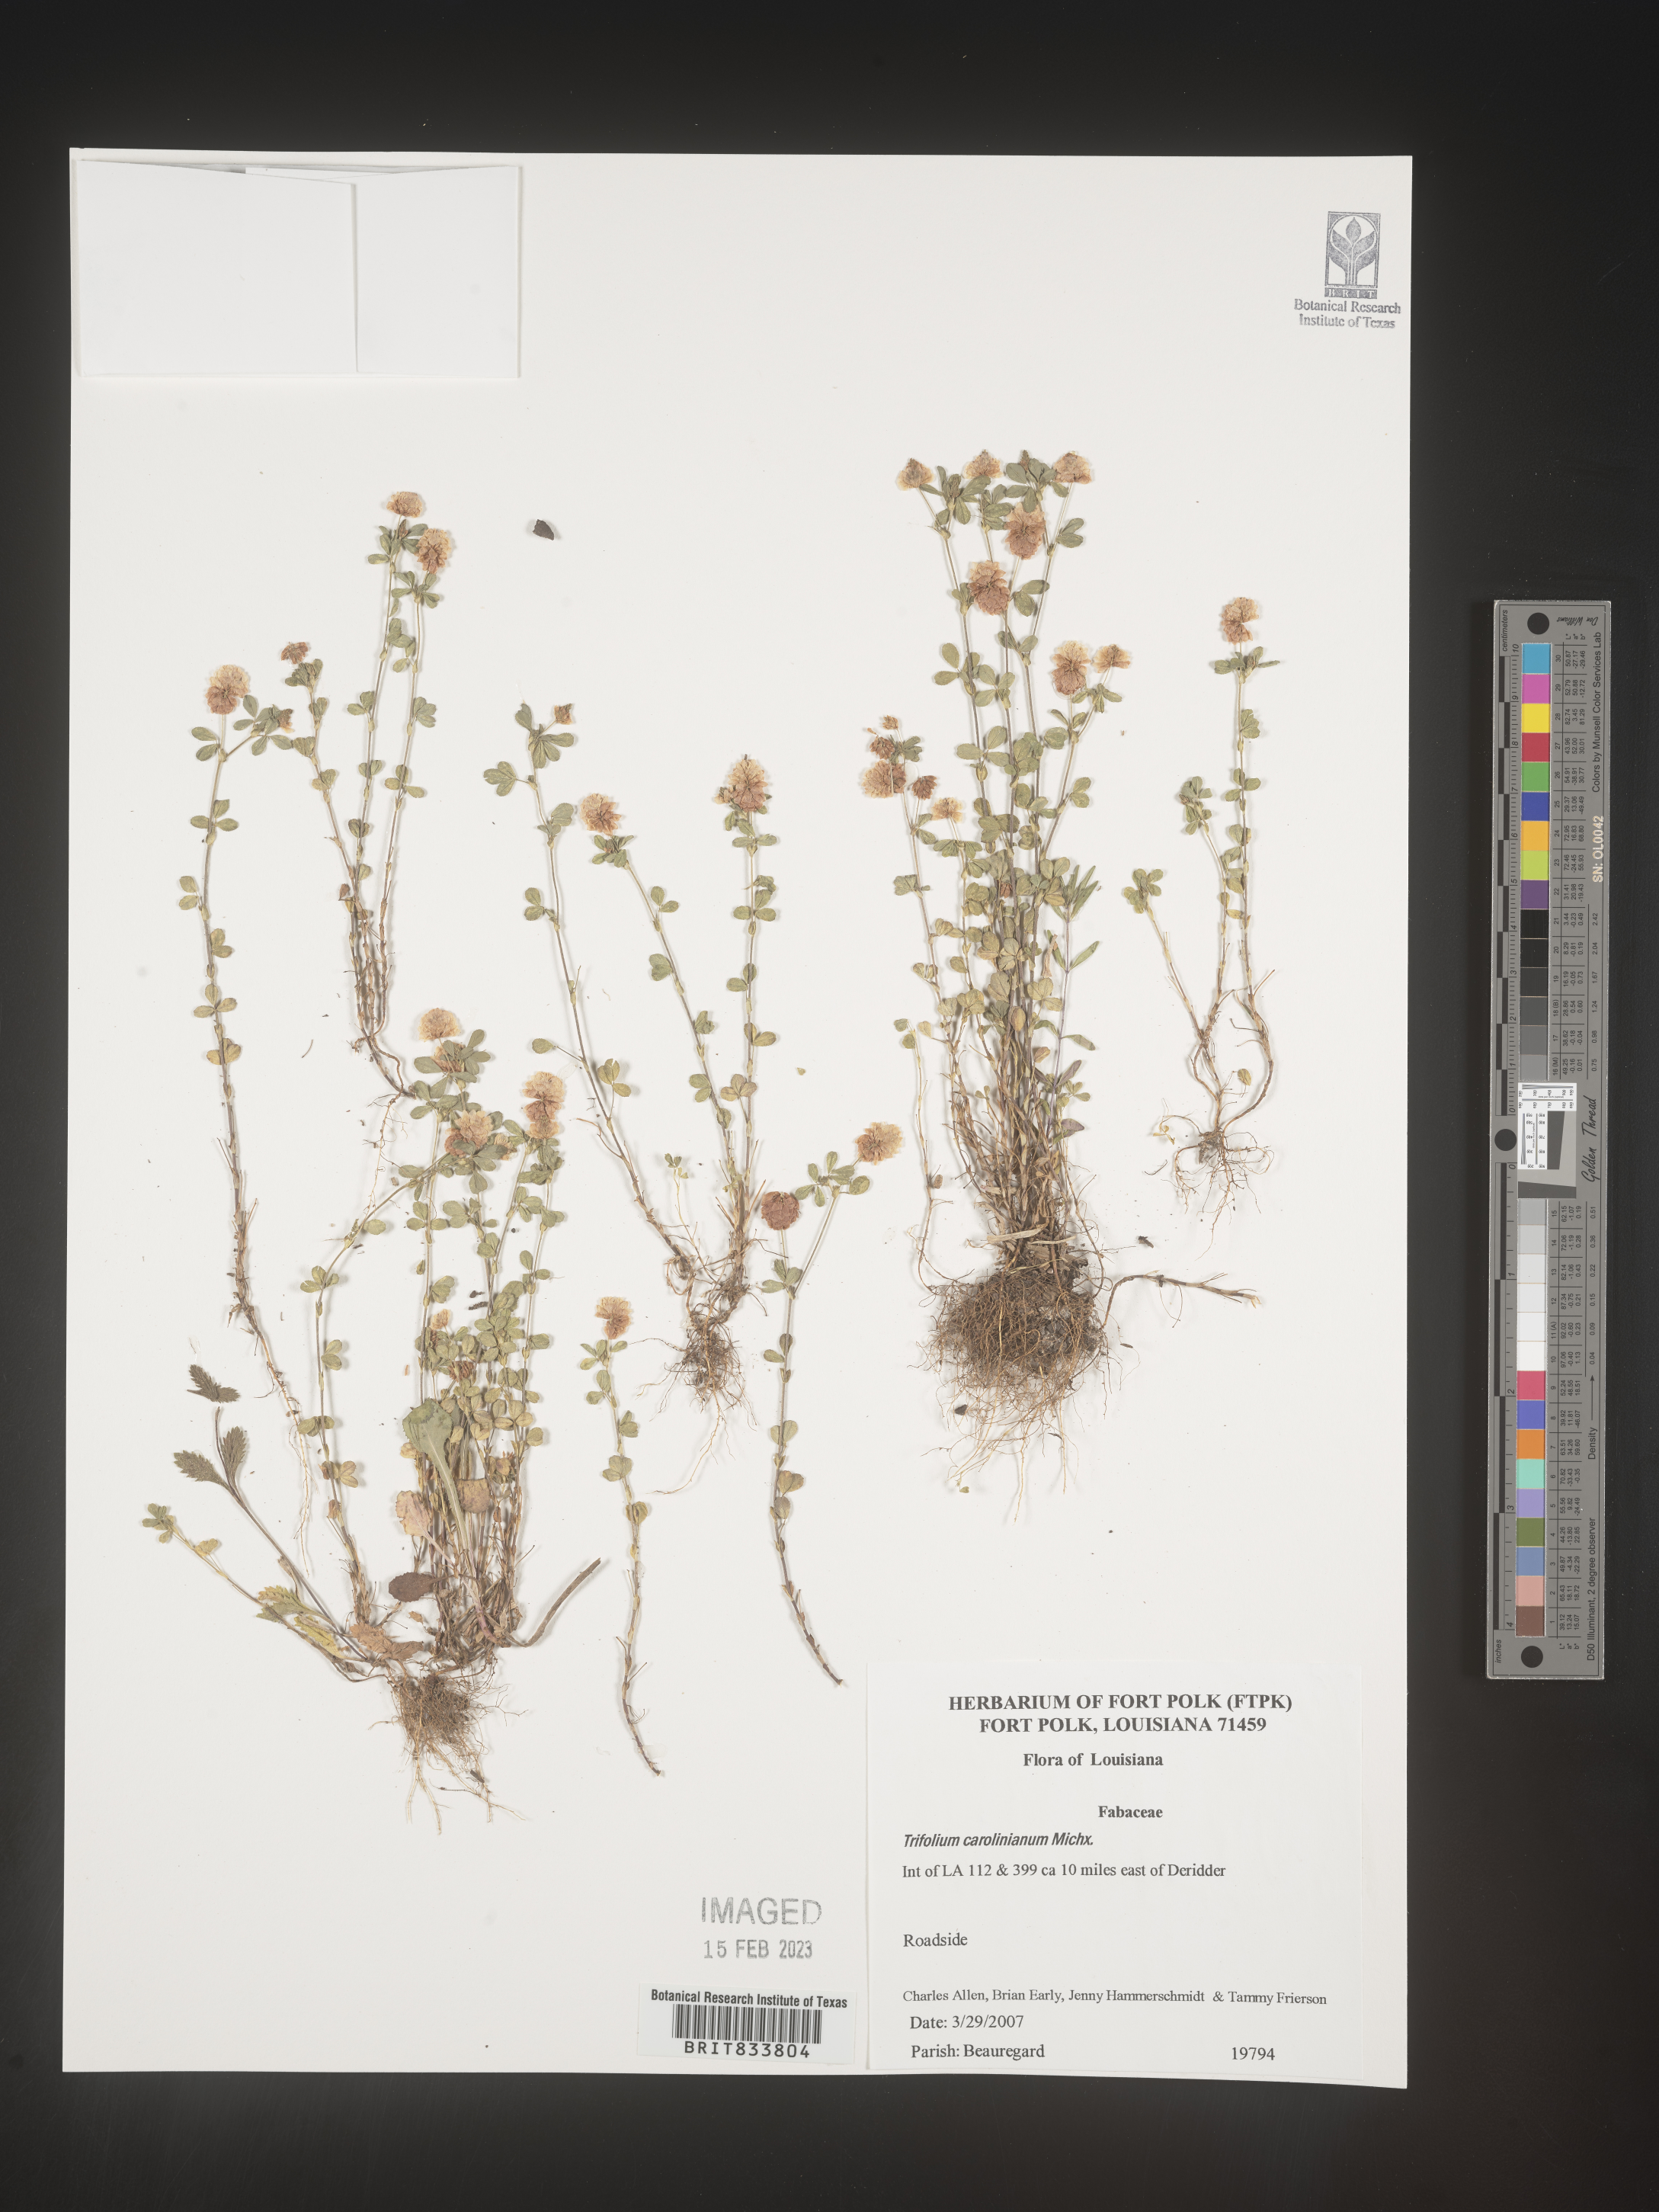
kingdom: Plantae
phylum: Tracheophyta
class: Magnoliopsida
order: Fabales
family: Fabaceae
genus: Trifolium
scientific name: Trifolium carolinianum
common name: Wild white clover
